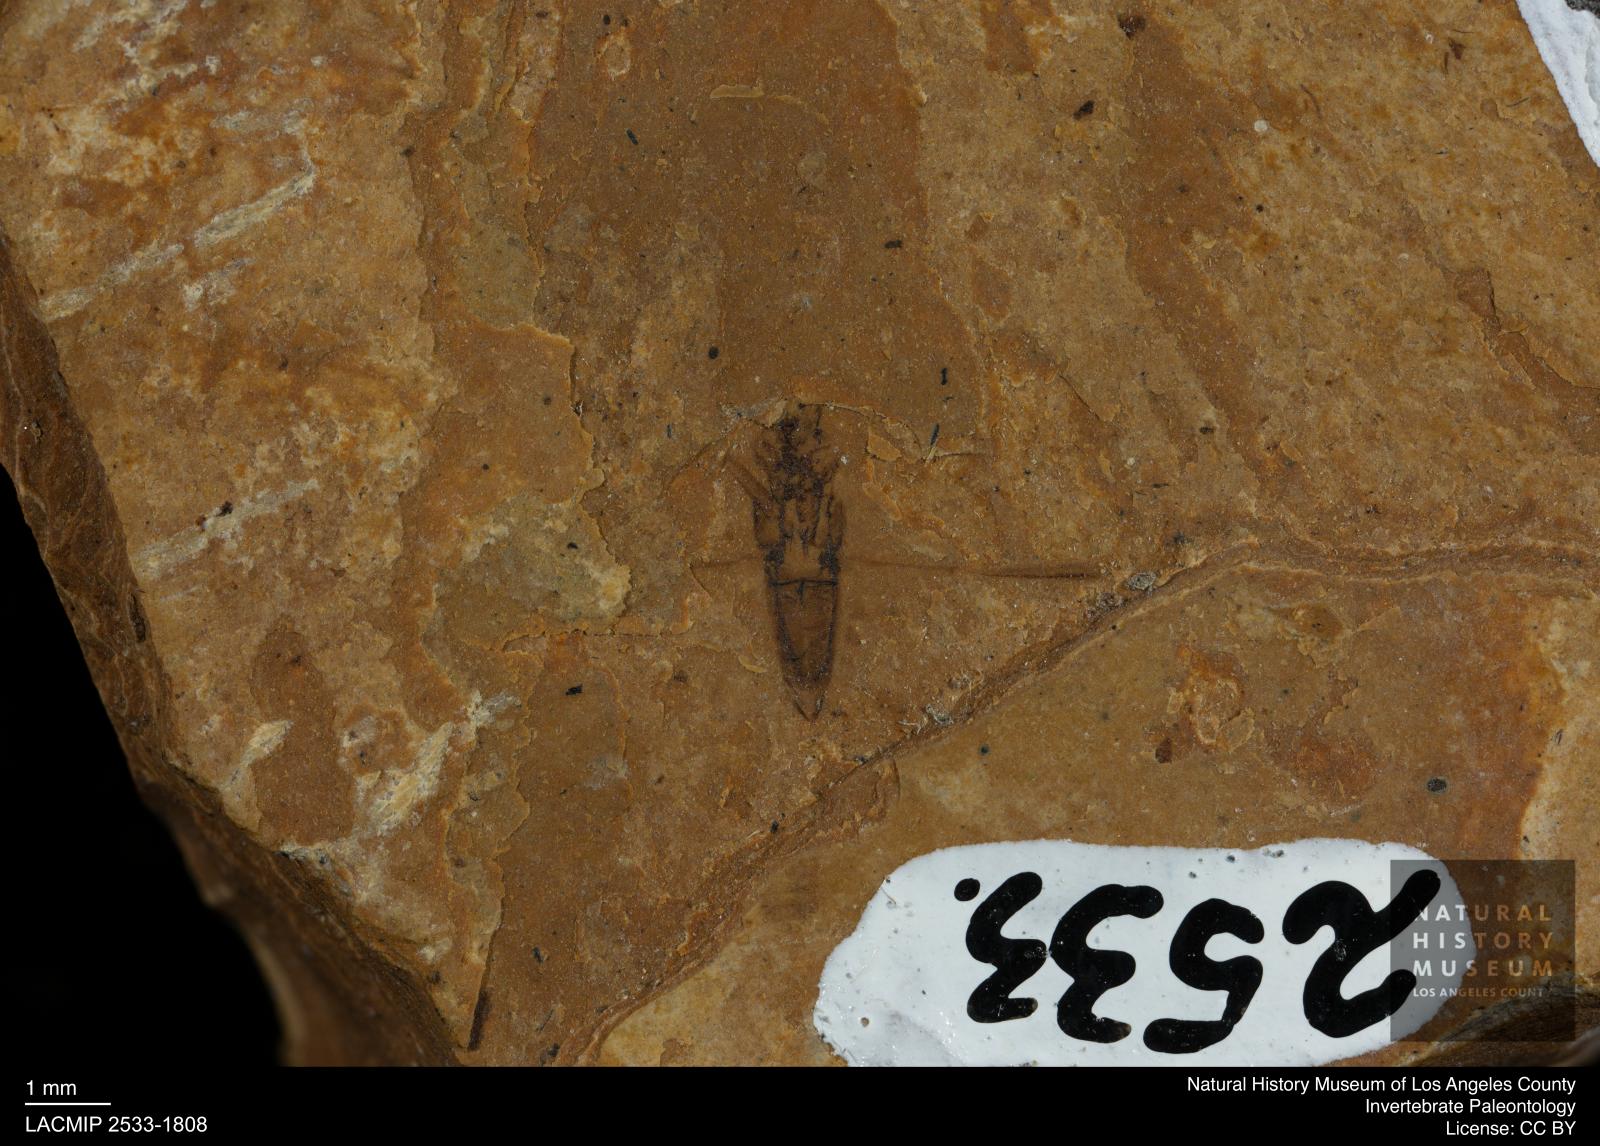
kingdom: Animalia
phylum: Arthropoda
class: Insecta
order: Hemiptera
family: Notonectidae
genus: Notonecta
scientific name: Notonecta
